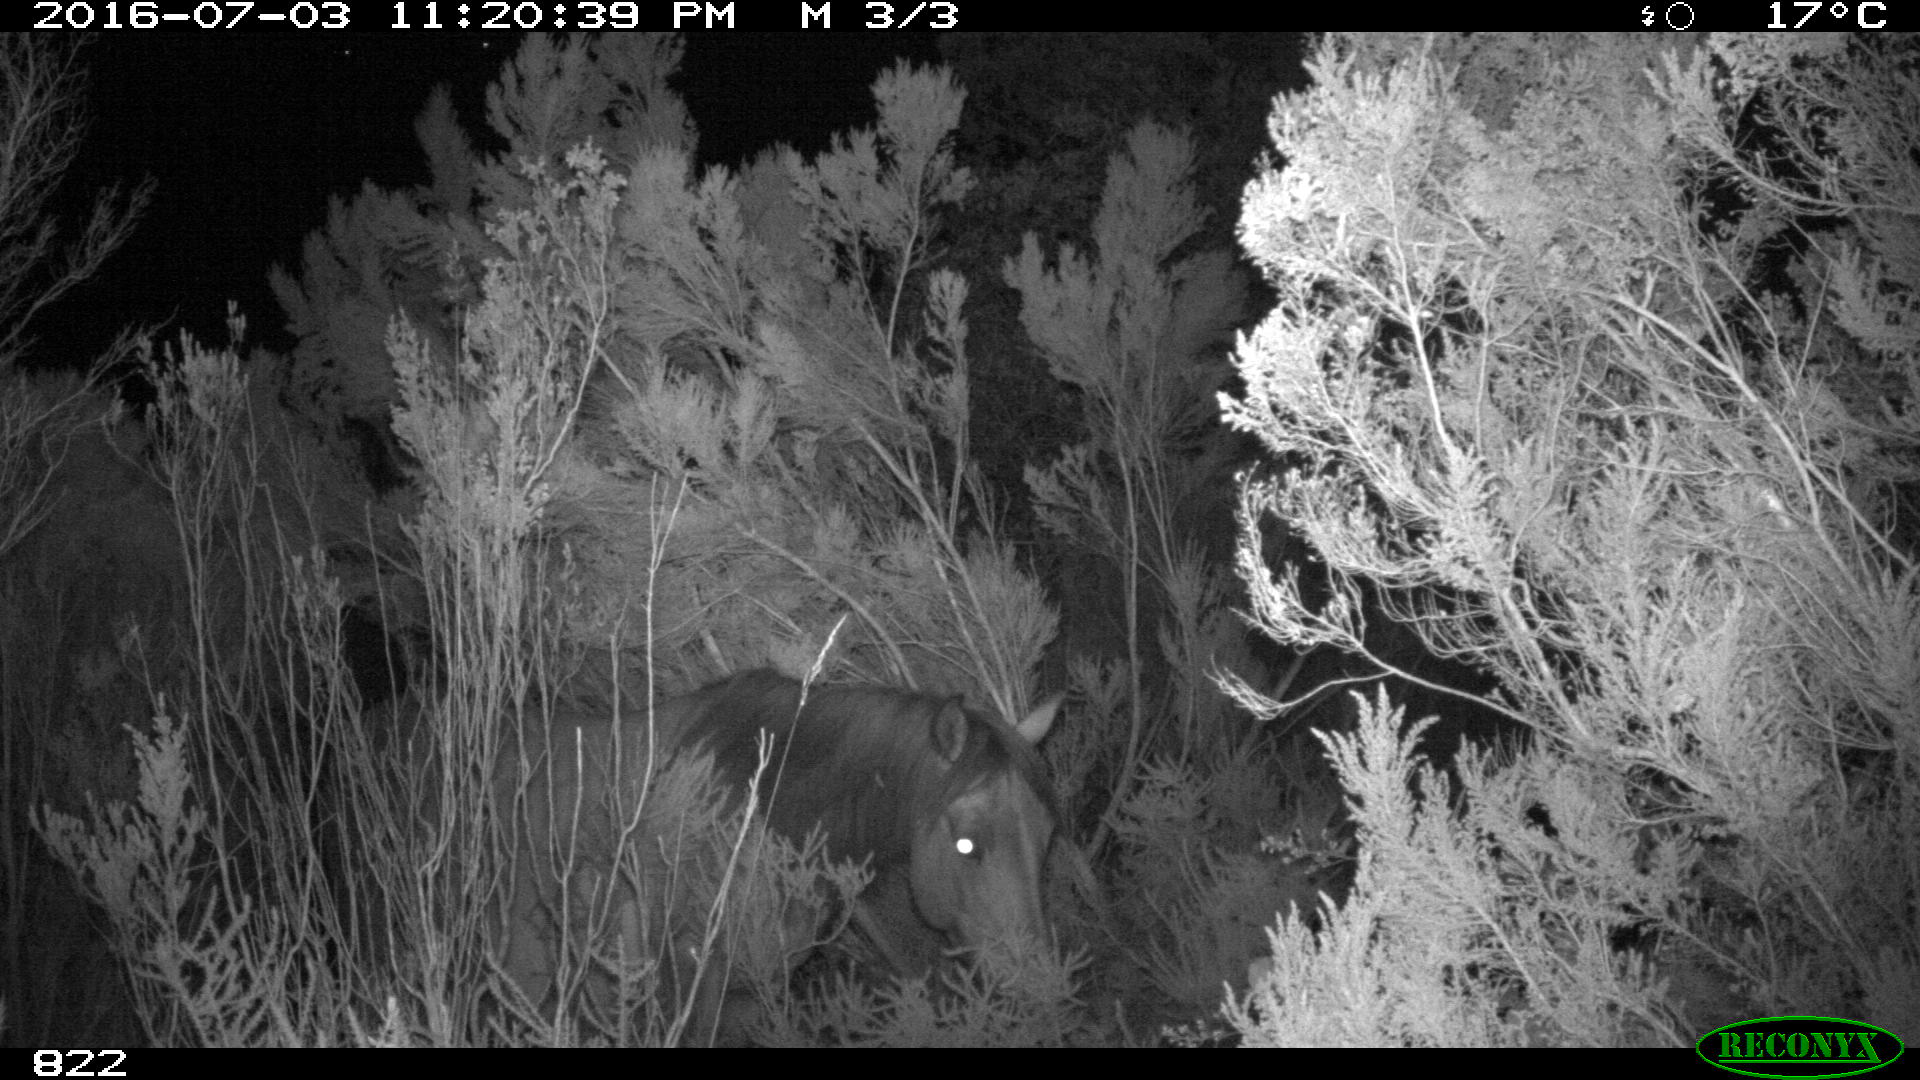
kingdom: Animalia
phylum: Chordata
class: Mammalia
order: Perissodactyla
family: Equidae
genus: Equus
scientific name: Equus caballus
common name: Horse
